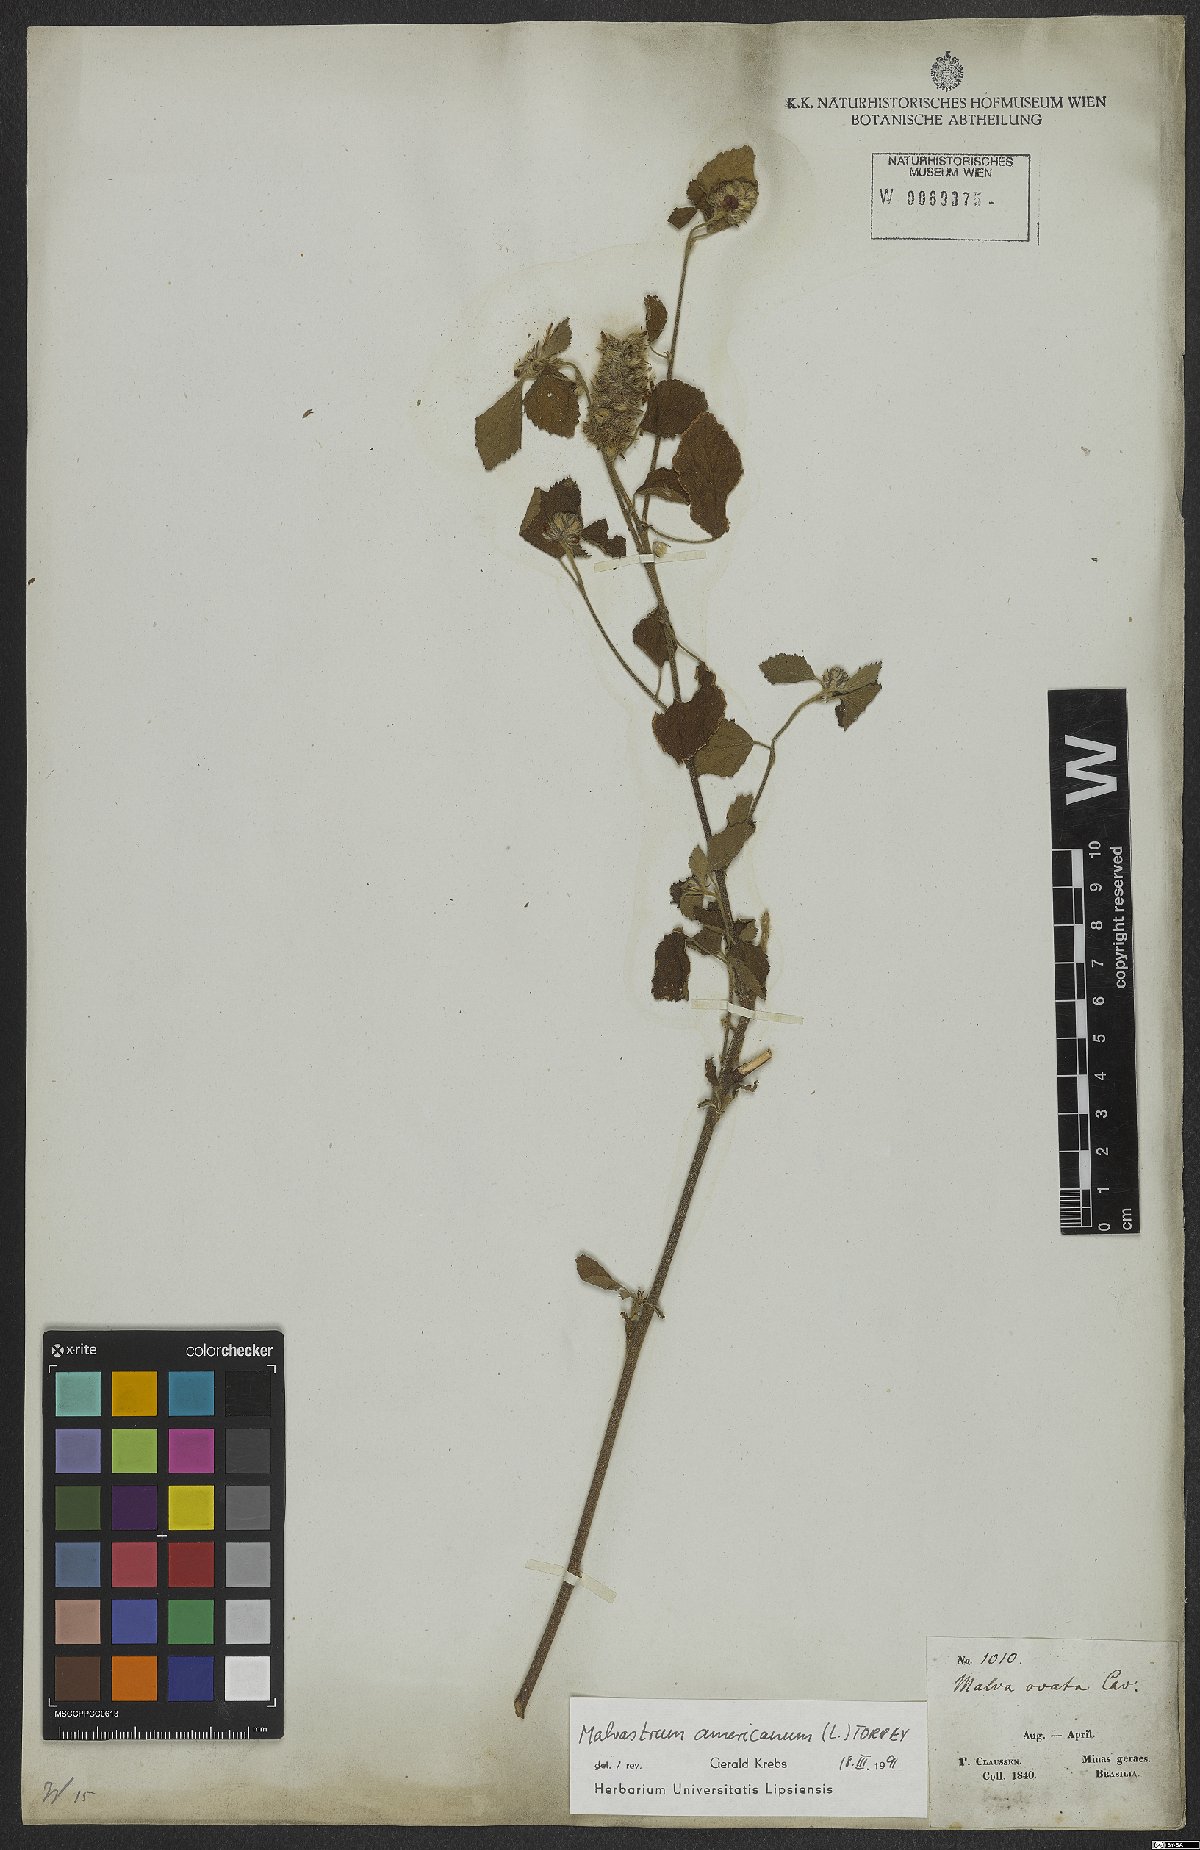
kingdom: Plantae
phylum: Tracheophyta
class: Magnoliopsida
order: Malvales
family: Malvaceae
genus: Malvastrum
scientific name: Malvastrum americanum
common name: Spiked malvastrum
